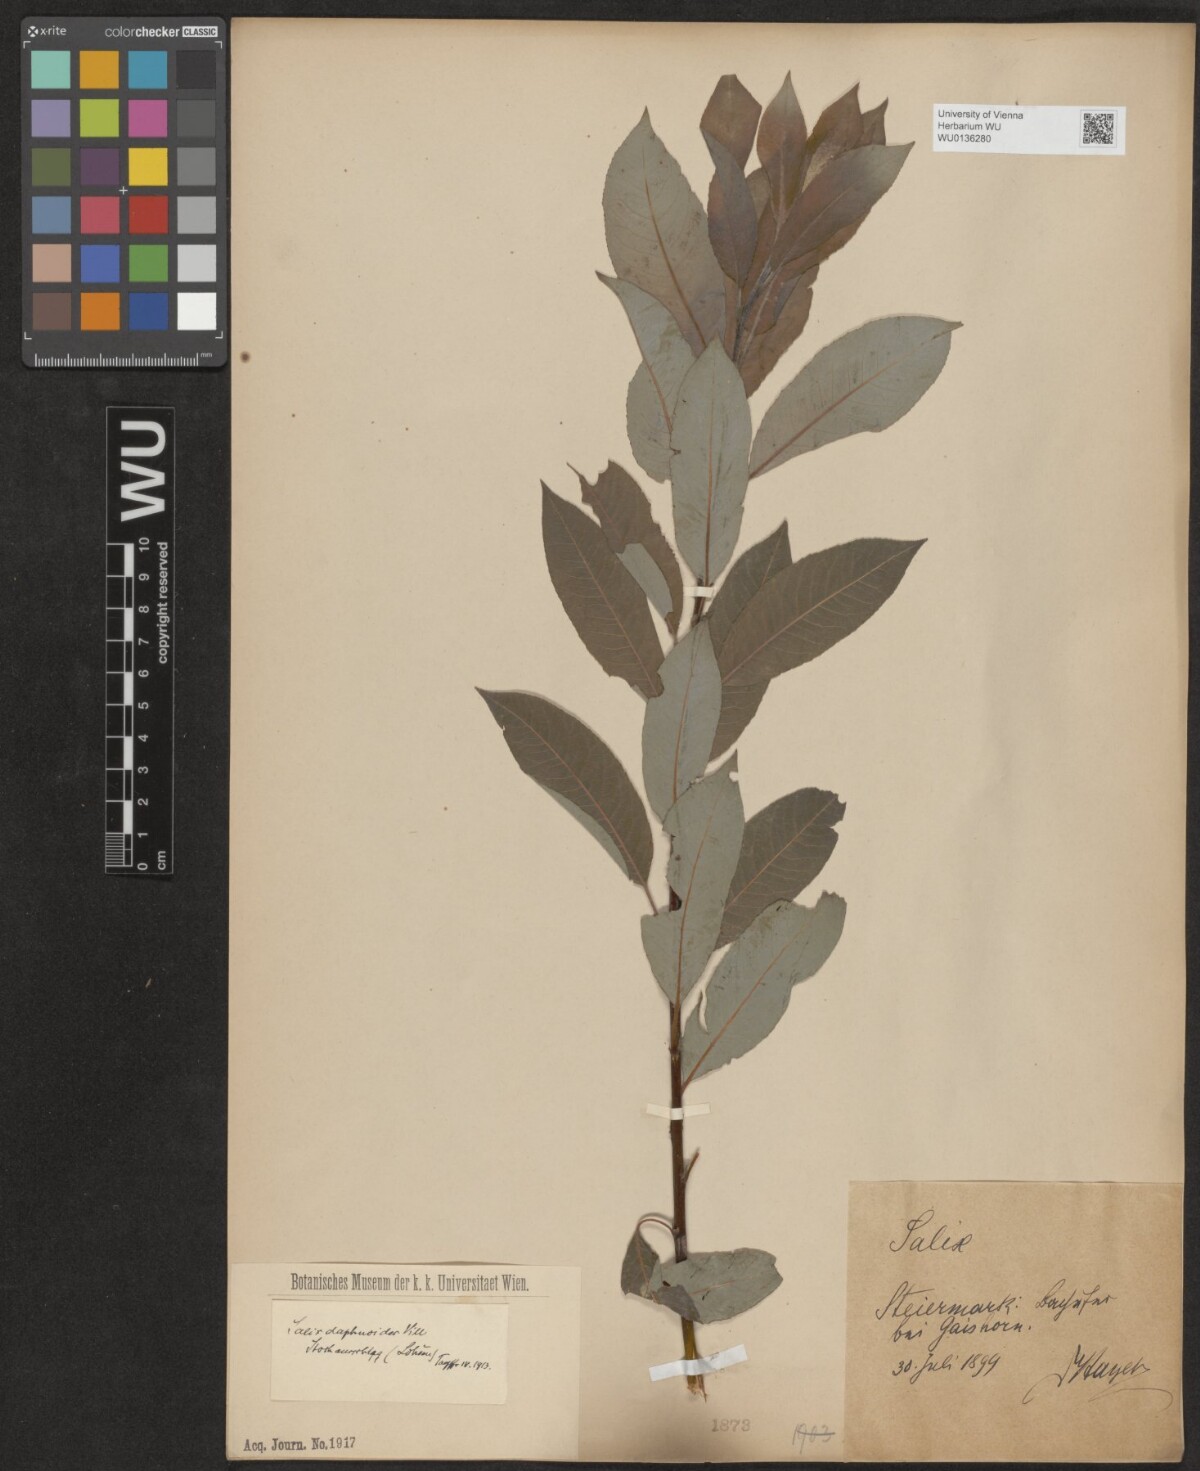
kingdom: Plantae
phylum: Tracheophyta
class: Magnoliopsida
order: Malpighiales
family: Salicaceae
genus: Salix
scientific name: Salix daphnoides
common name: European violet-willow
